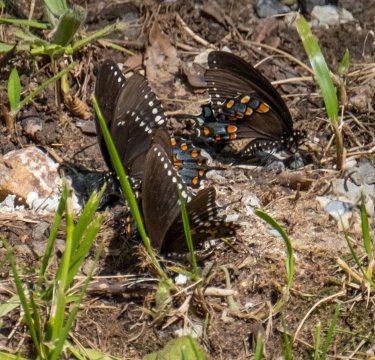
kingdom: Animalia
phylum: Arthropoda
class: Insecta
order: Lepidoptera
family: Papilionidae
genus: Pterourus
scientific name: Pterourus troilus
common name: Spicebush Swallowtail
